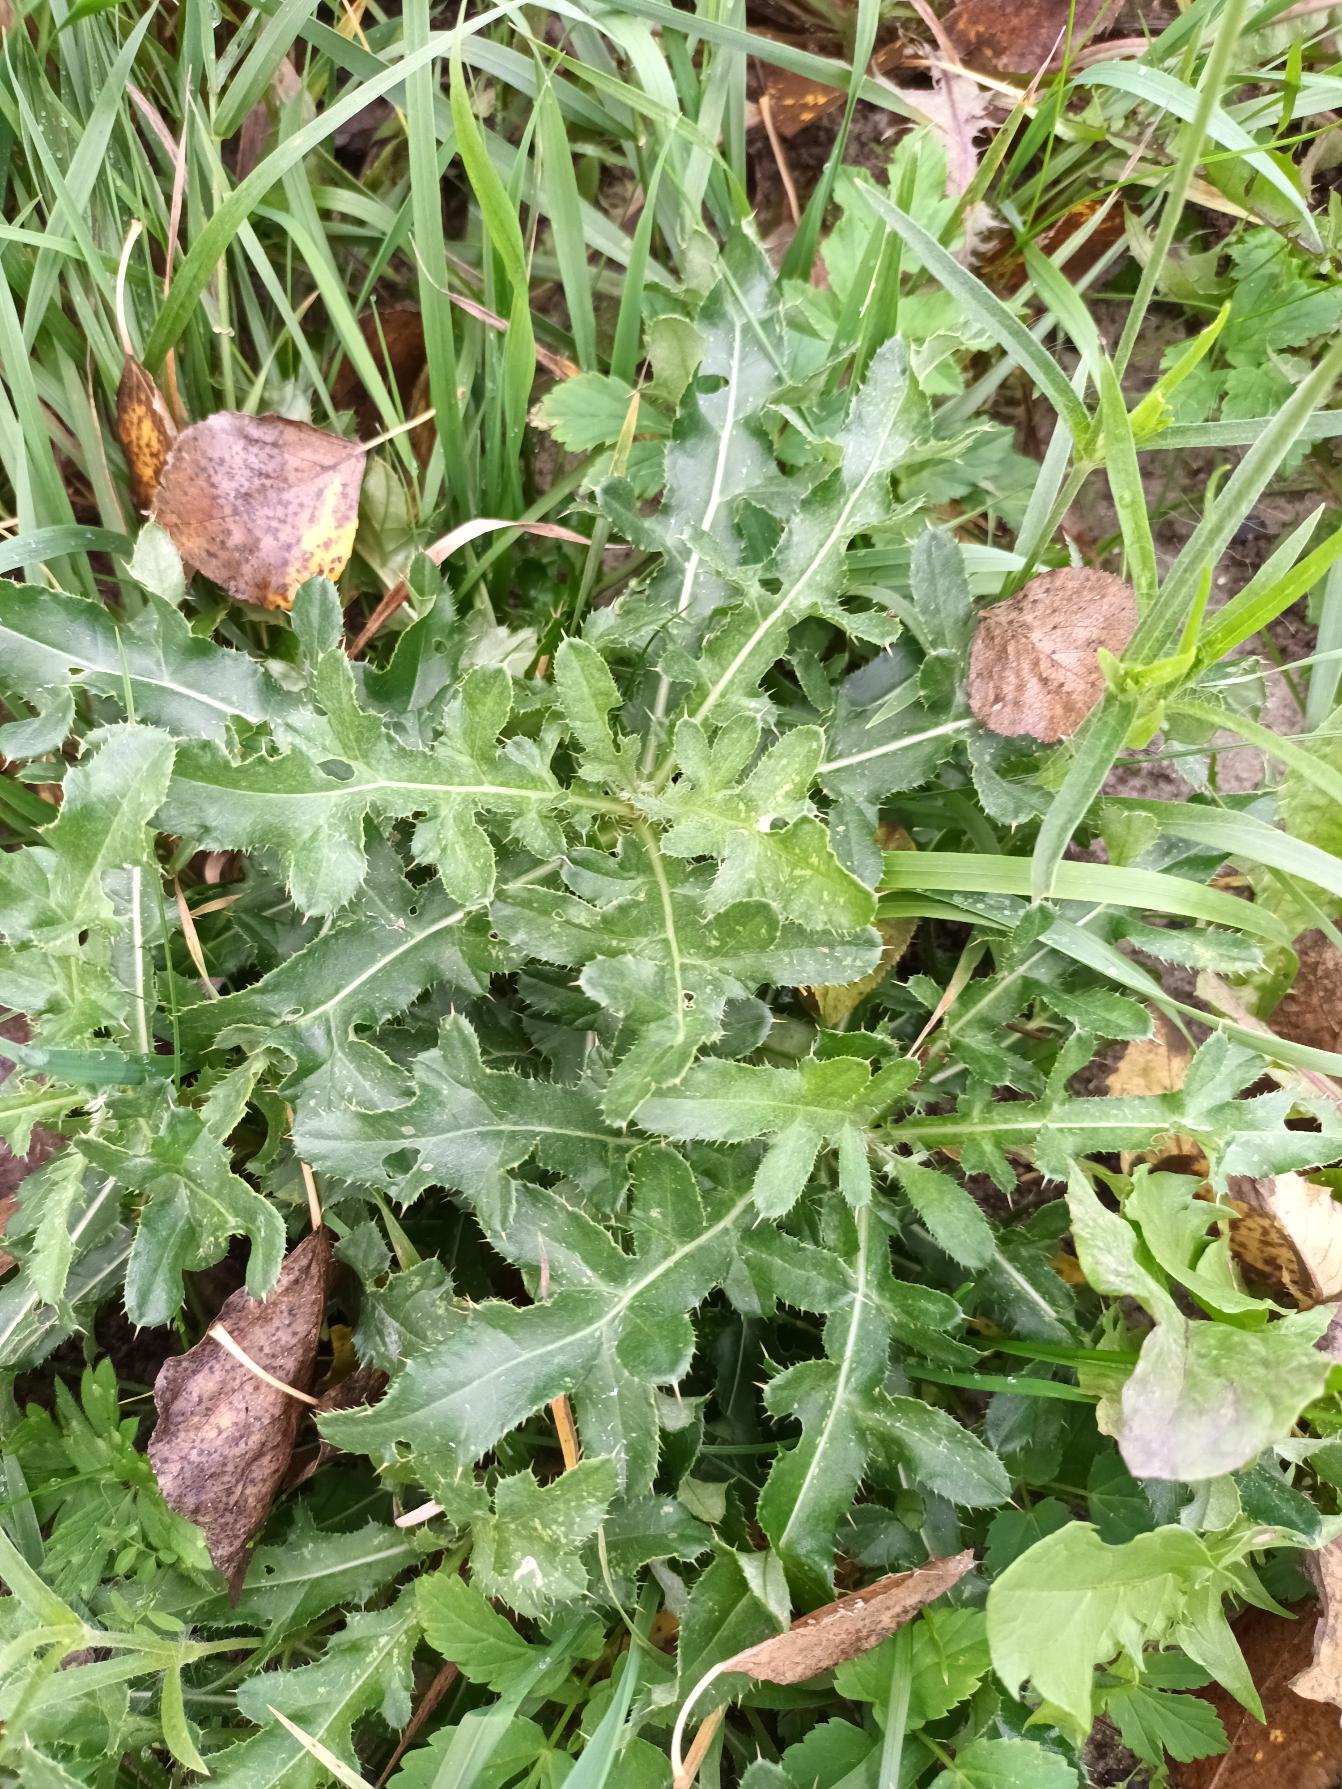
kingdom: Plantae
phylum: Tracheophyta
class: Magnoliopsida
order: Asterales
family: Asteraceae
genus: Cirsium
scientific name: Cirsium arvense
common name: Ager-tidsel
